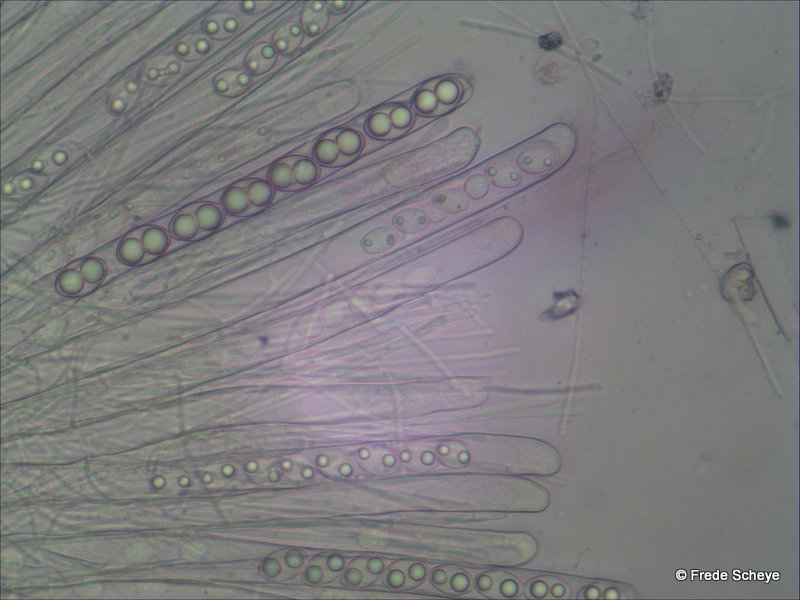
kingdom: Fungi
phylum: Ascomycota
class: Pezizomycetes
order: Pezizales
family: Pyronemataceae
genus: Tarzetta
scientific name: Tarzetta cupularis
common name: gulbrun pokalbæger
